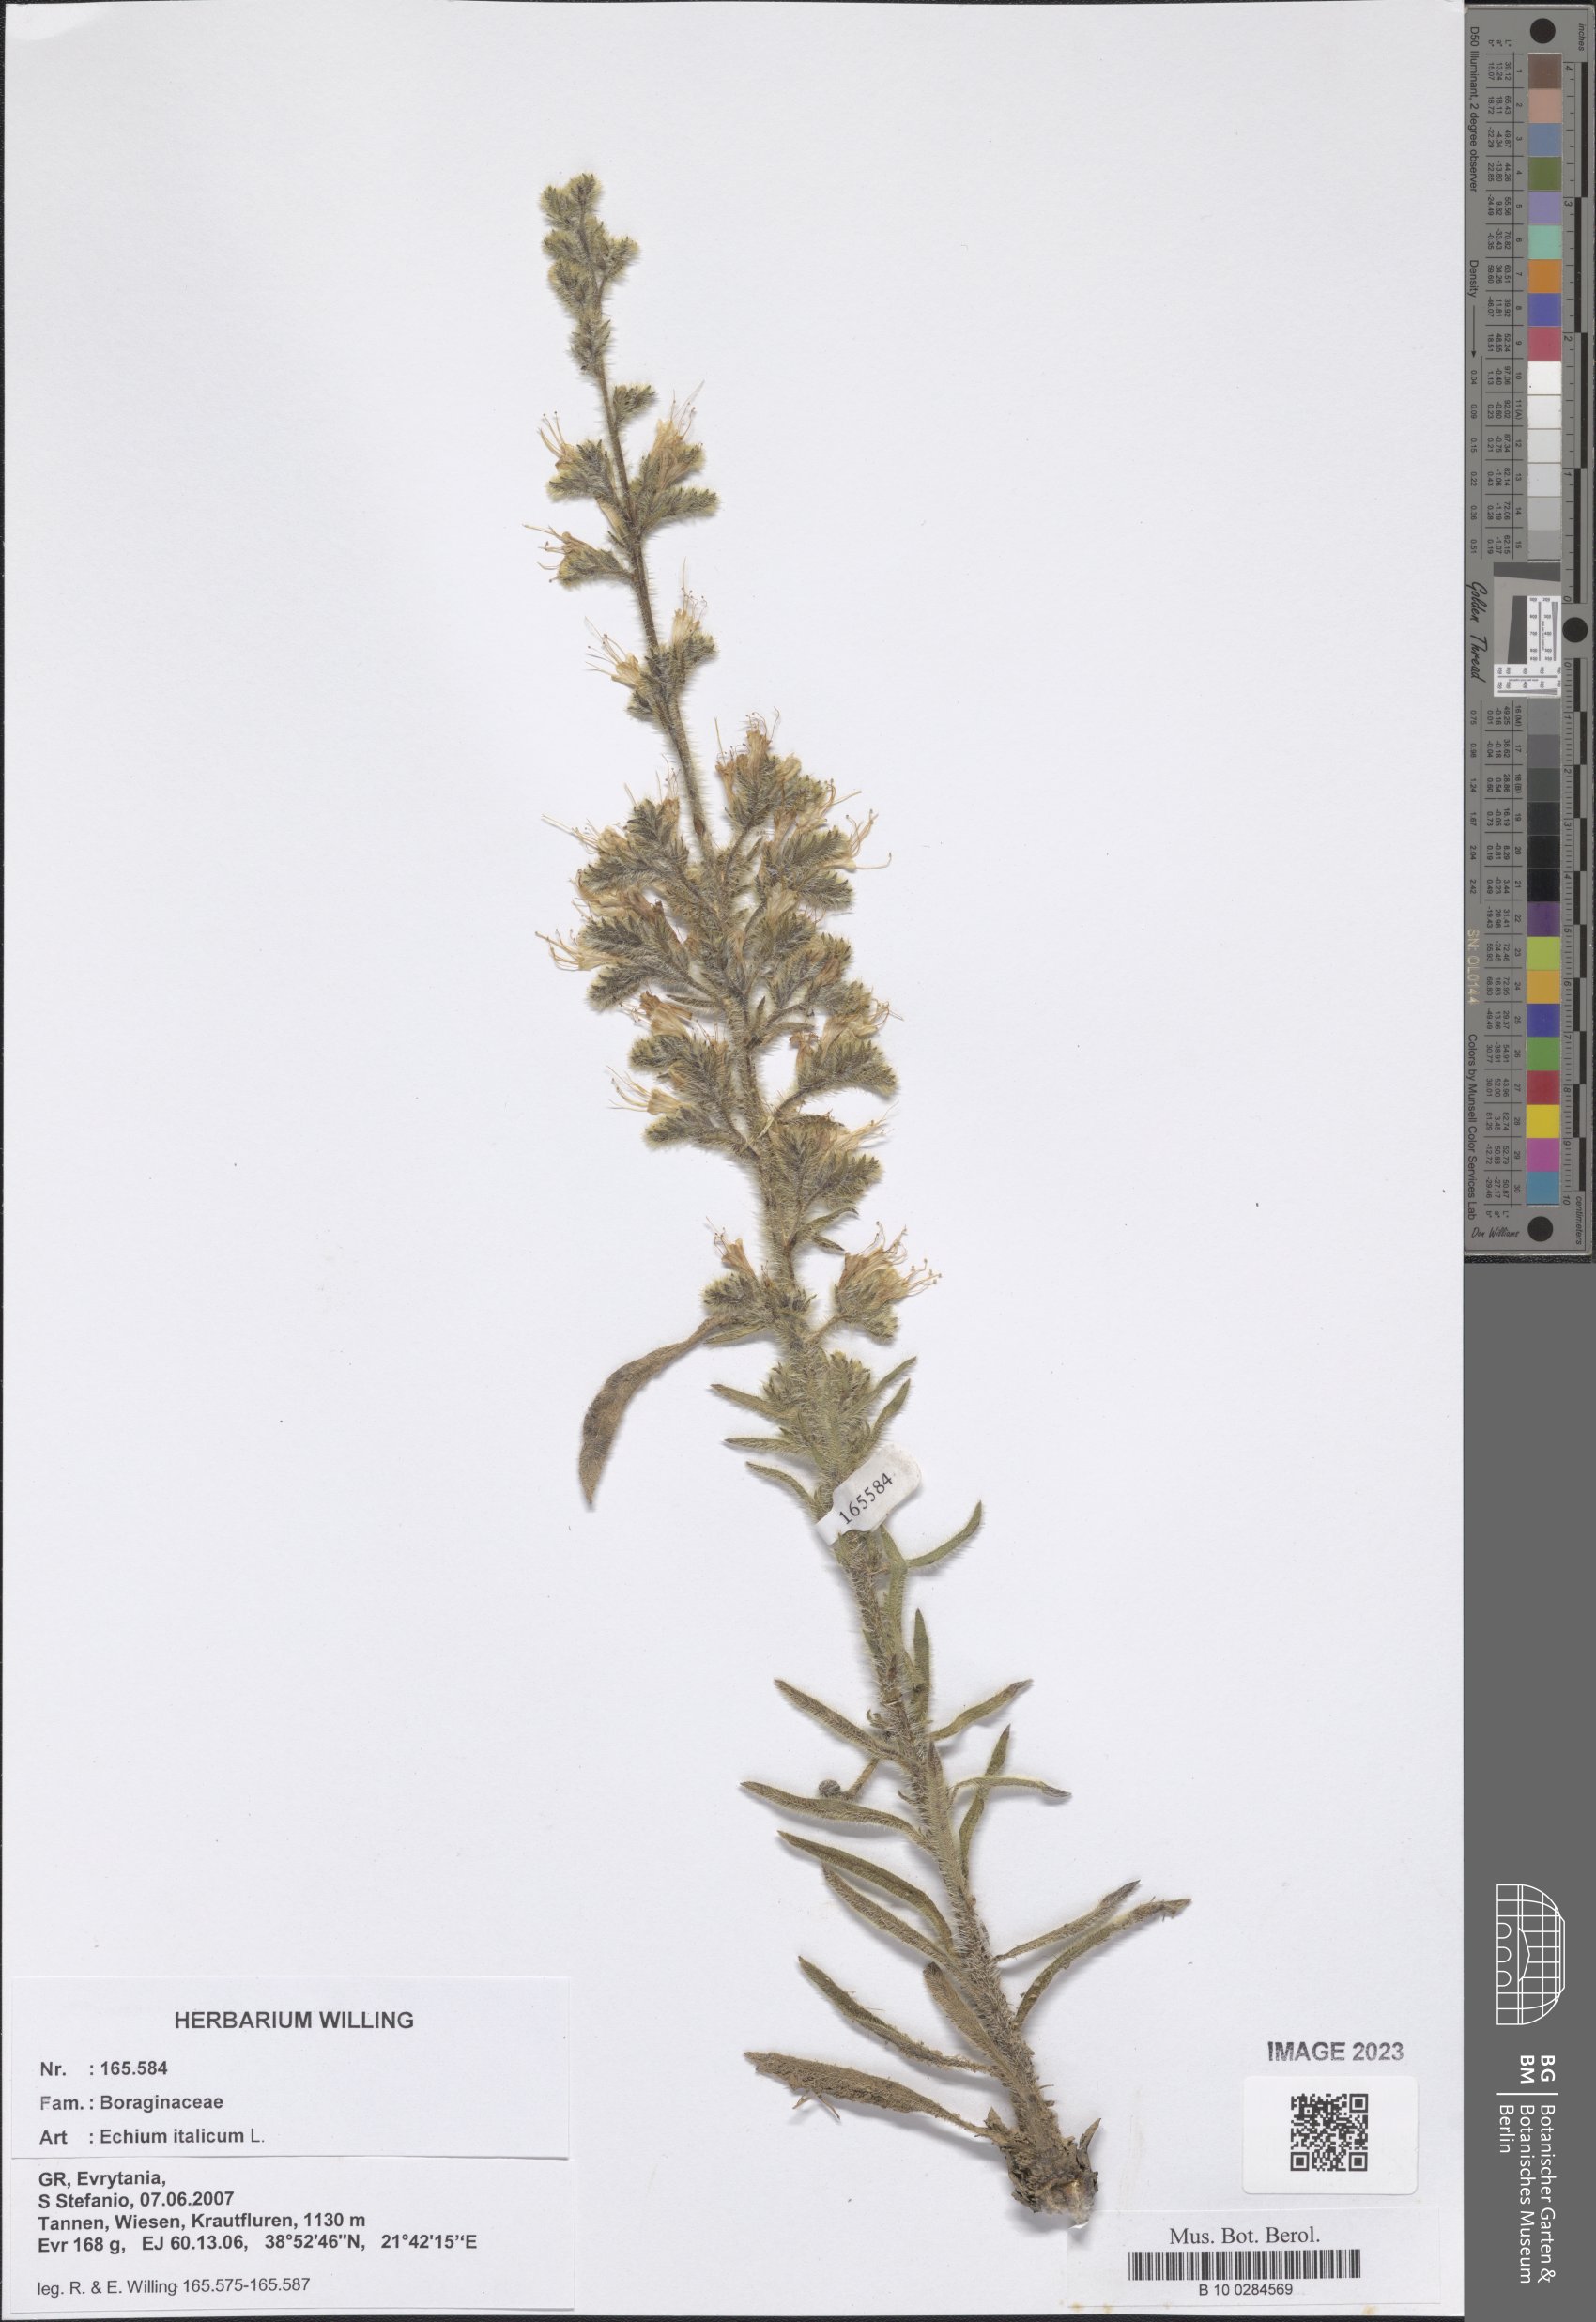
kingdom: Plantae
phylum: Tracheophyta
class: Magnoliopsida
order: Boraginales
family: Boraginaceae
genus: Echium
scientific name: Echium italicum
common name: Italian viper's bugloss
